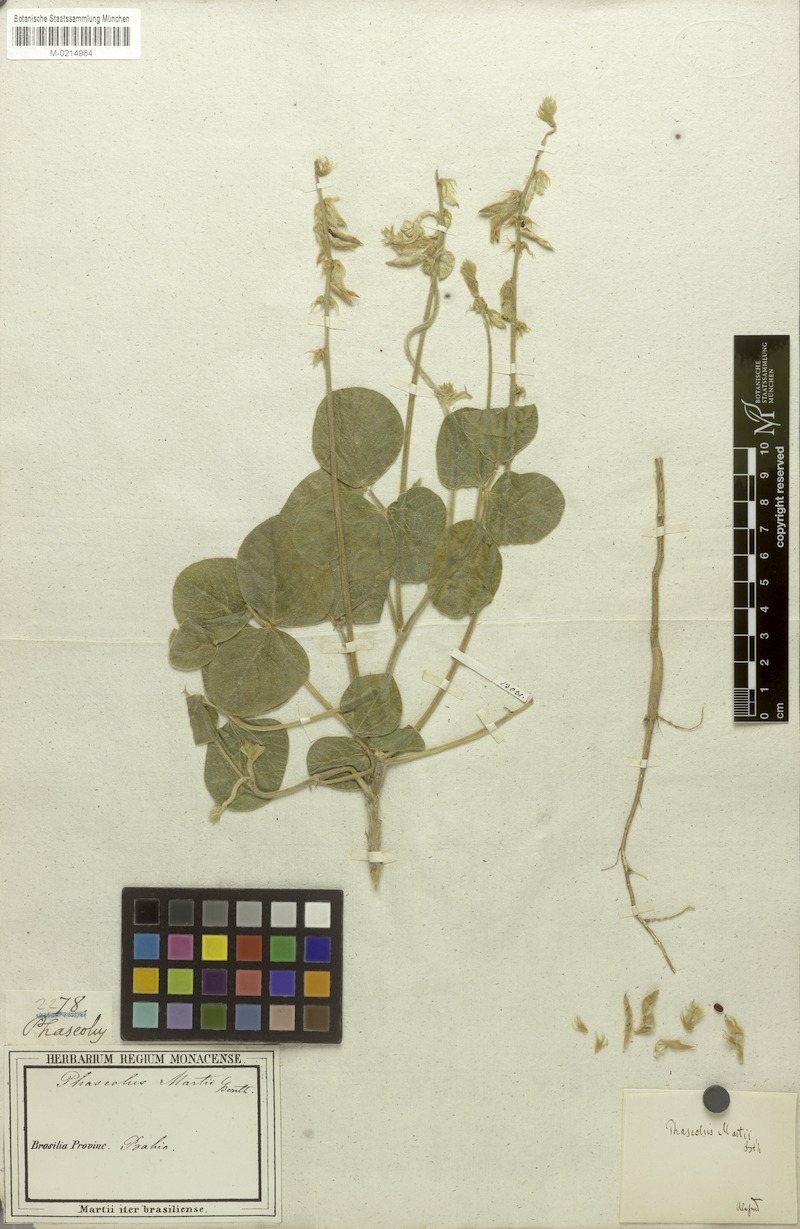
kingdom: Plantae
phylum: Tracheophyta
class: Magnoliopsida
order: Fabales
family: Fabaceae
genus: Macroptilium
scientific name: Macroptilium martii
